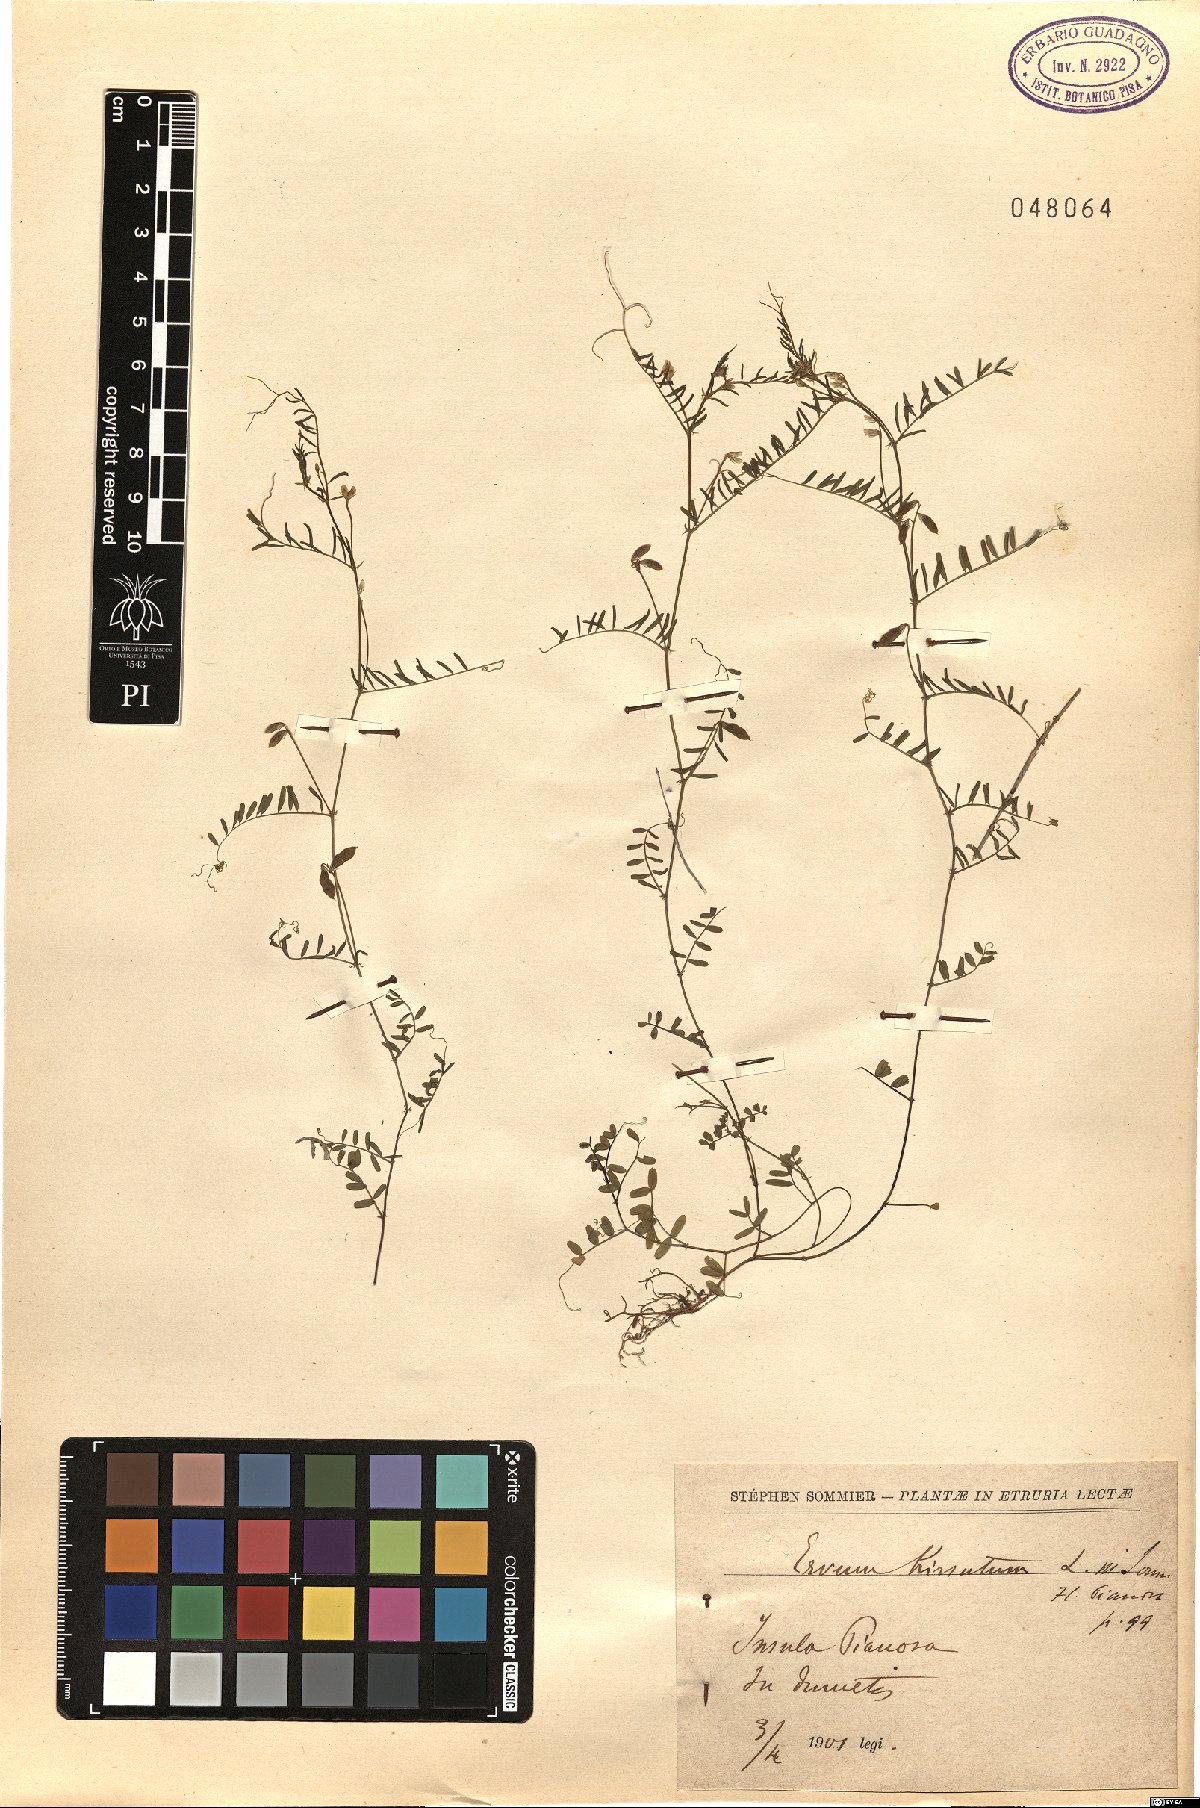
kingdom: Plantae
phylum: Tracheophyta
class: Magnoliopsida
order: Fabales
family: Fabaceae
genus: Vicia
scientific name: Vicia hirsuta
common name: Tiny vetch
